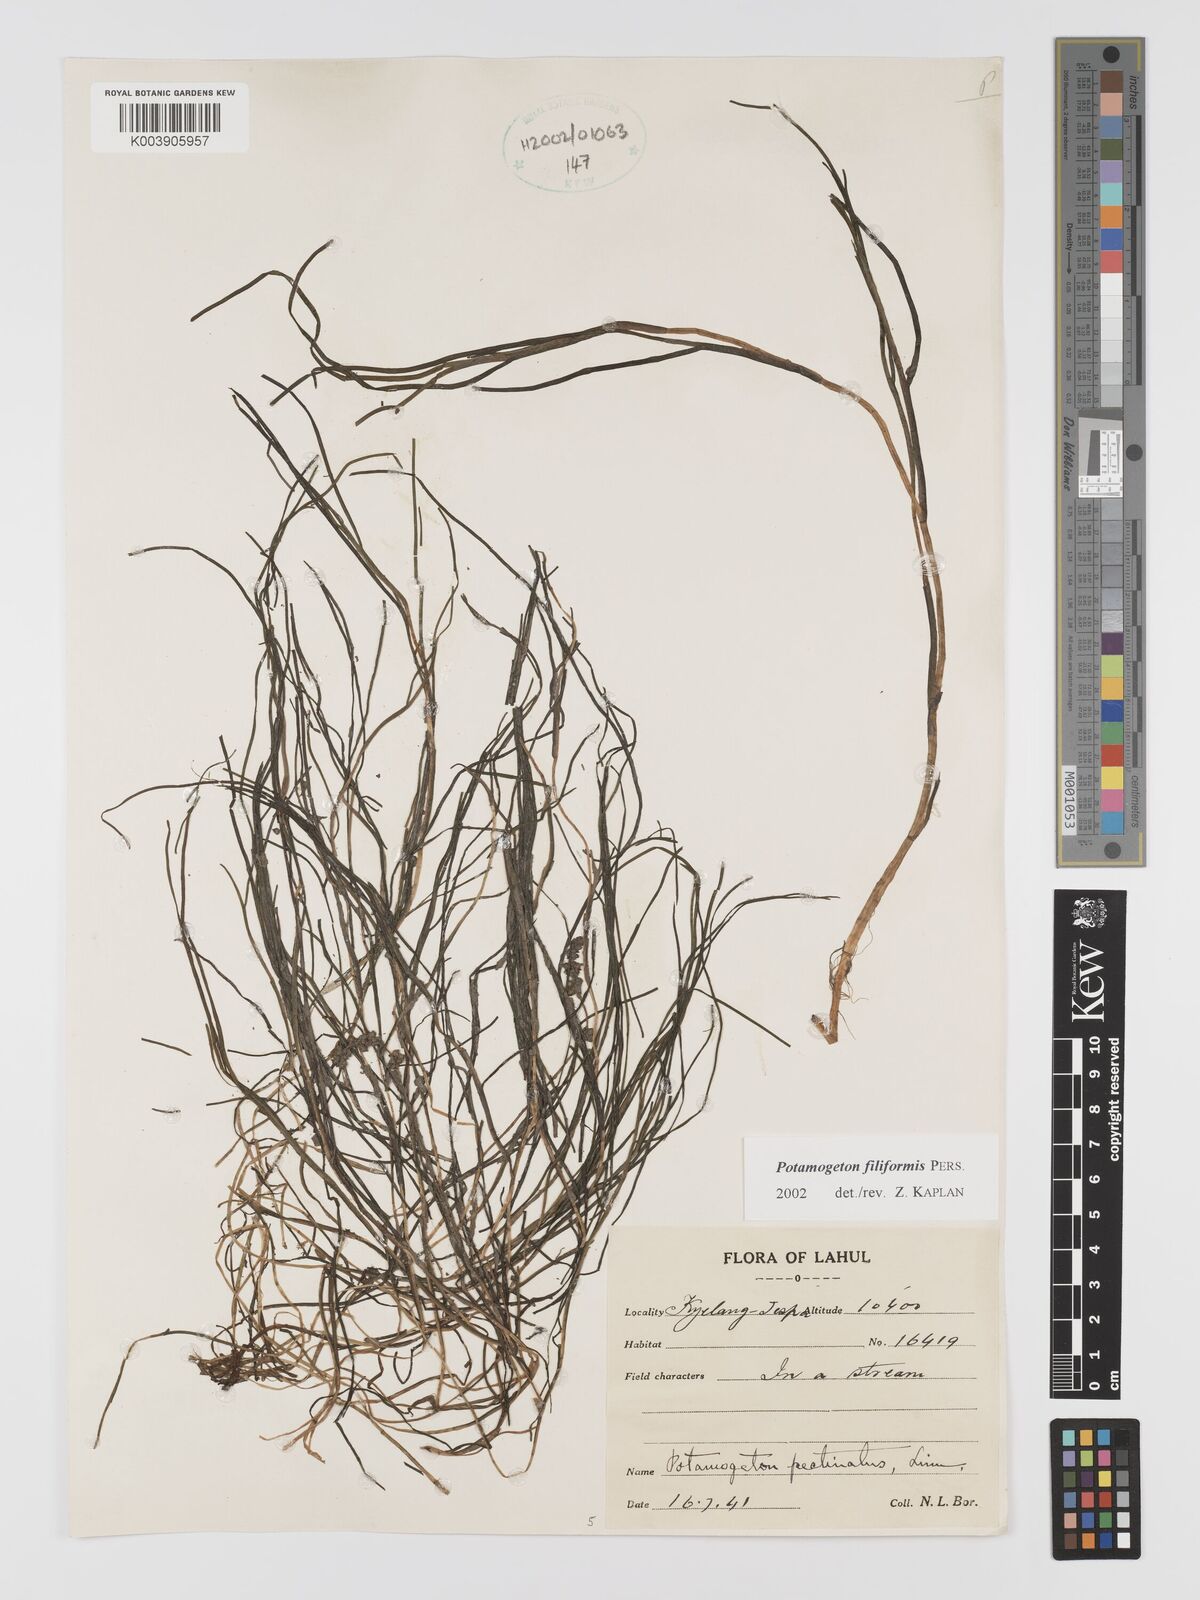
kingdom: Plantae
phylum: Tracheophyta
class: Liliopsida
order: Alismatales
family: Potamogetonaceae
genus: Potamogeton
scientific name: Potamogeton filiformis
